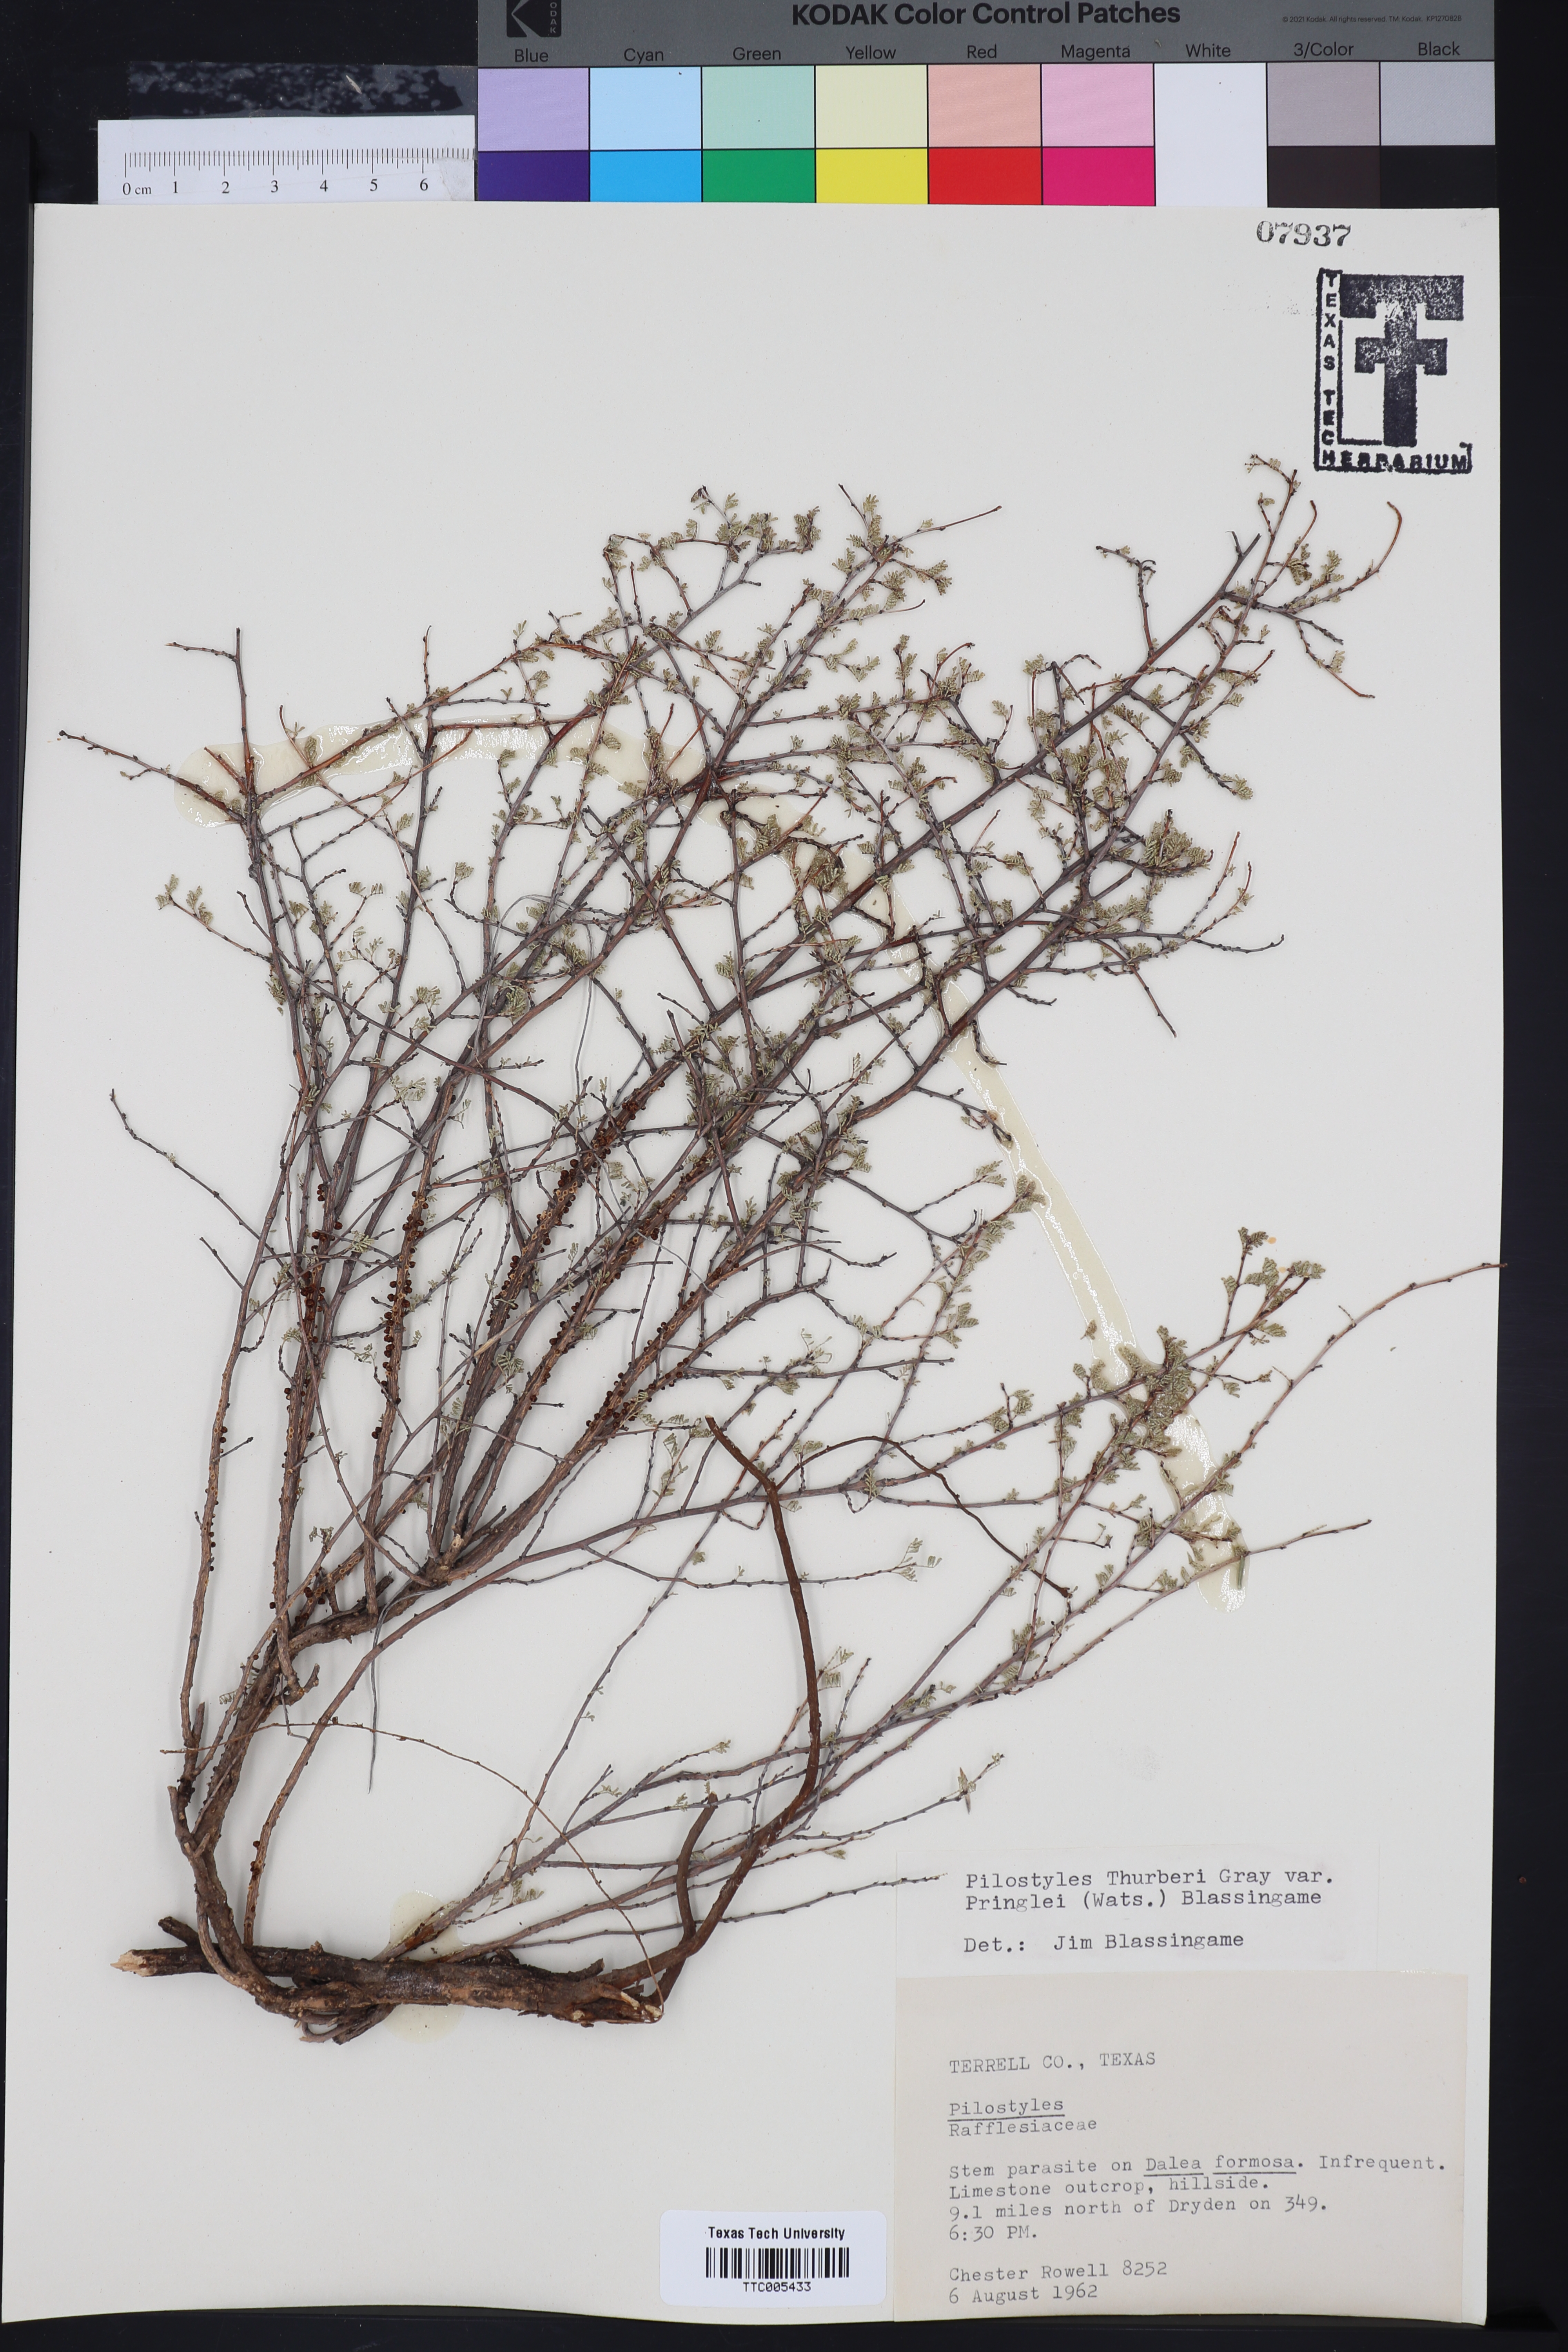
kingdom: Plantae
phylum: Tracheophyta
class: Magnoliopsida
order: Cucurbitales
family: Apodanthaceae
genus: Pilostyles
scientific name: Pilostyles thurberi
